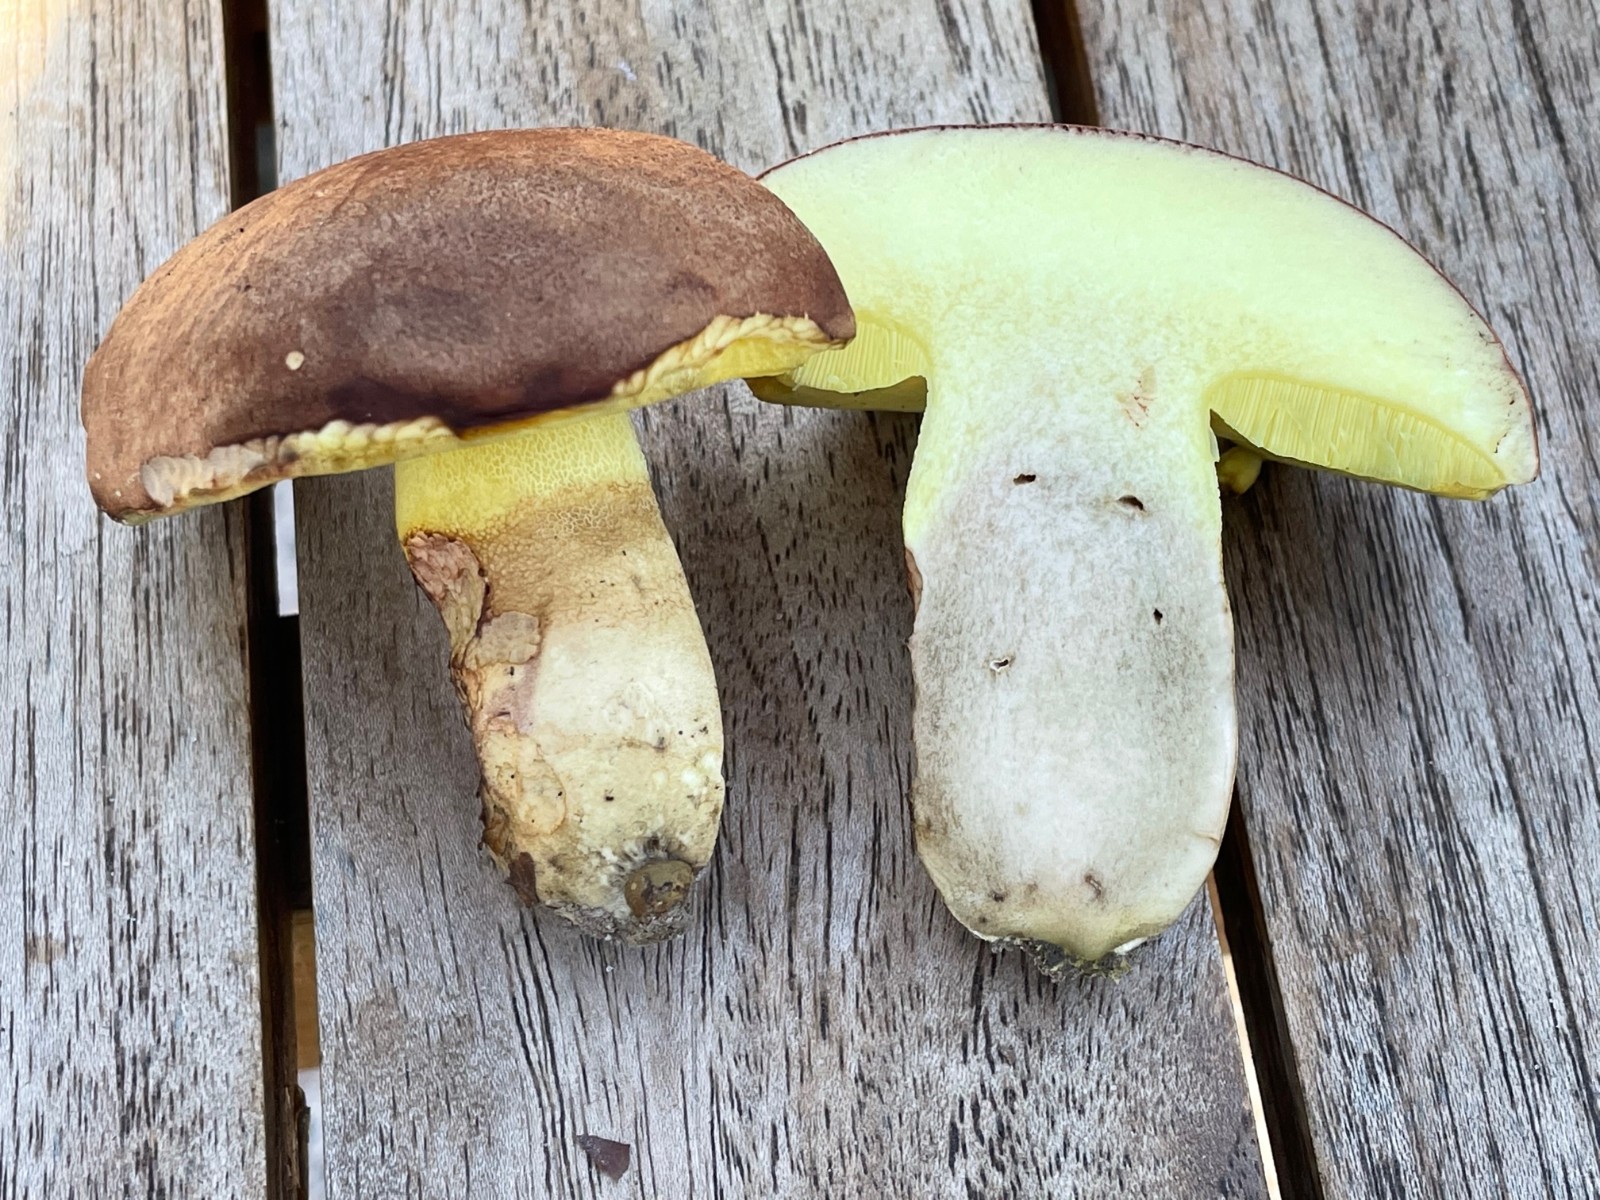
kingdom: Fungi
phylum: Basidiomycota
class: Agaricomycetes
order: Boletales
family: Boletaceae
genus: Butyriboletus
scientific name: Butyriboletus appendiculatus
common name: tenstokket rørhat
